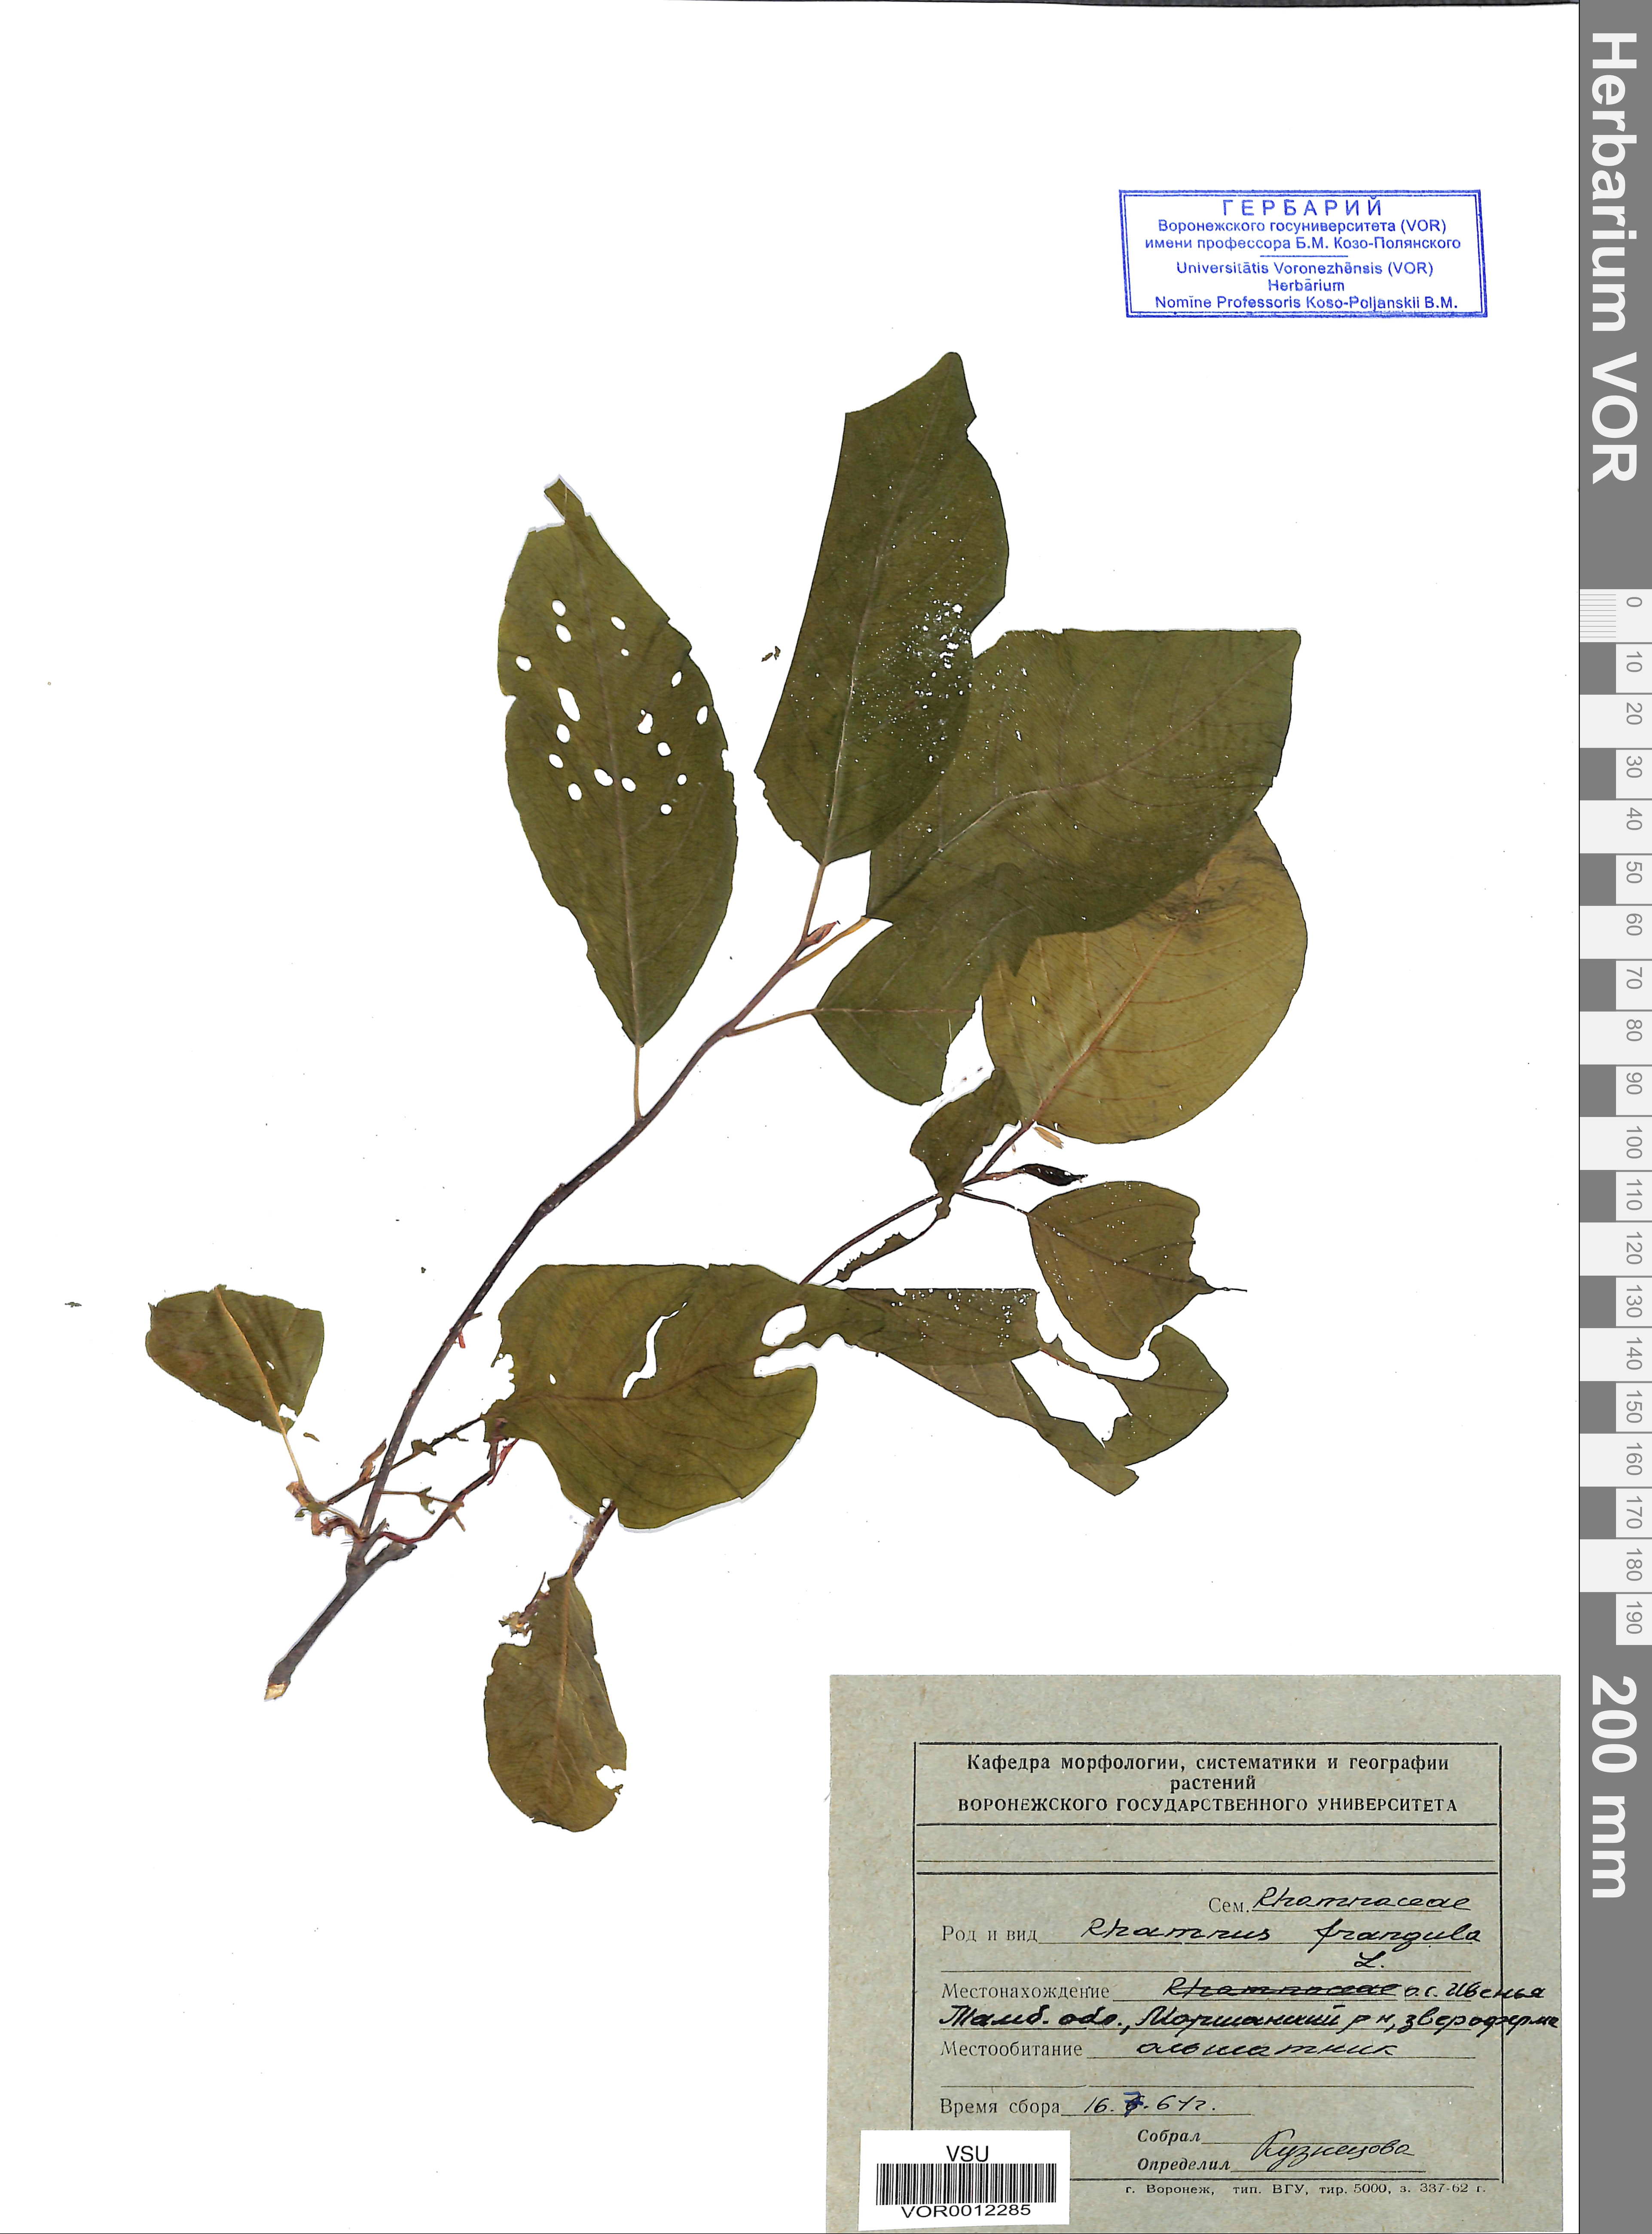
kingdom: Plantae
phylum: Tracheophyta
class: Magnoliopsida
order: Rosales
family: Rhamnaceae
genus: Frangula
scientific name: Frangula alnus
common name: Alder buckthorn
